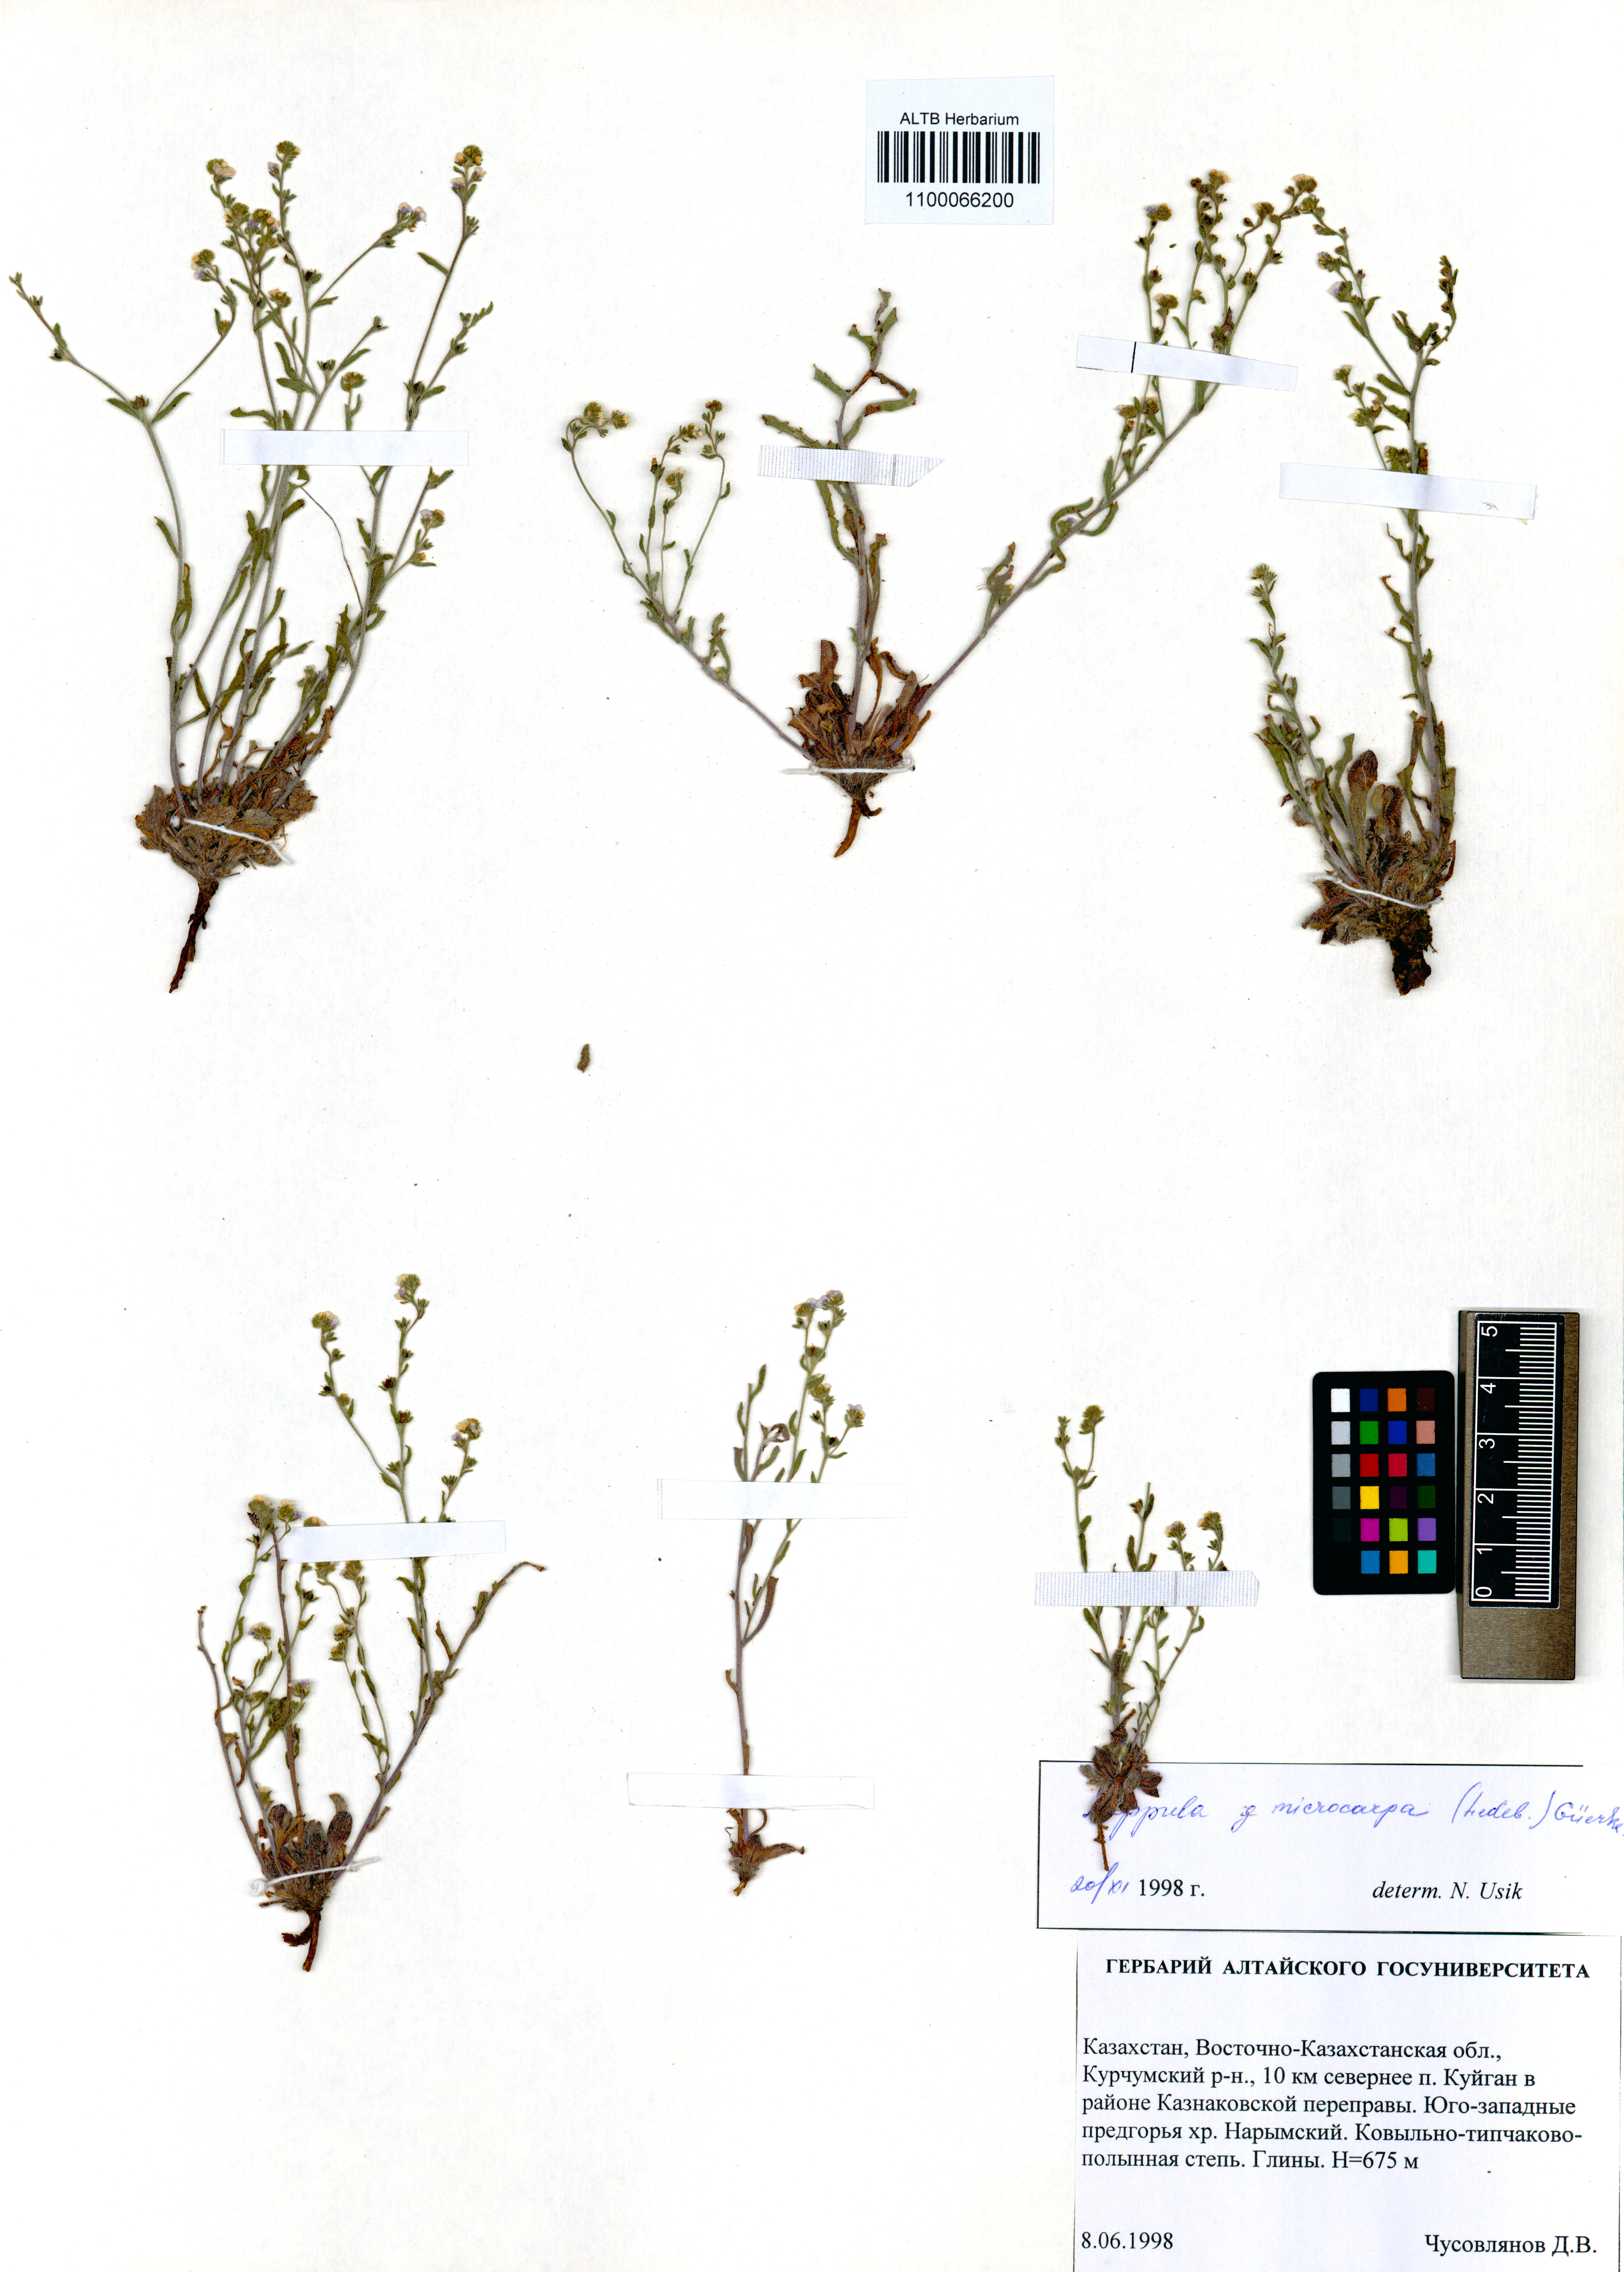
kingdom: Plantae
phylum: Tracheophyta
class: Magnoliopsida
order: Boraginales
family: Boraginaceae
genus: Lappula
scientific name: Lappula microcarpa
